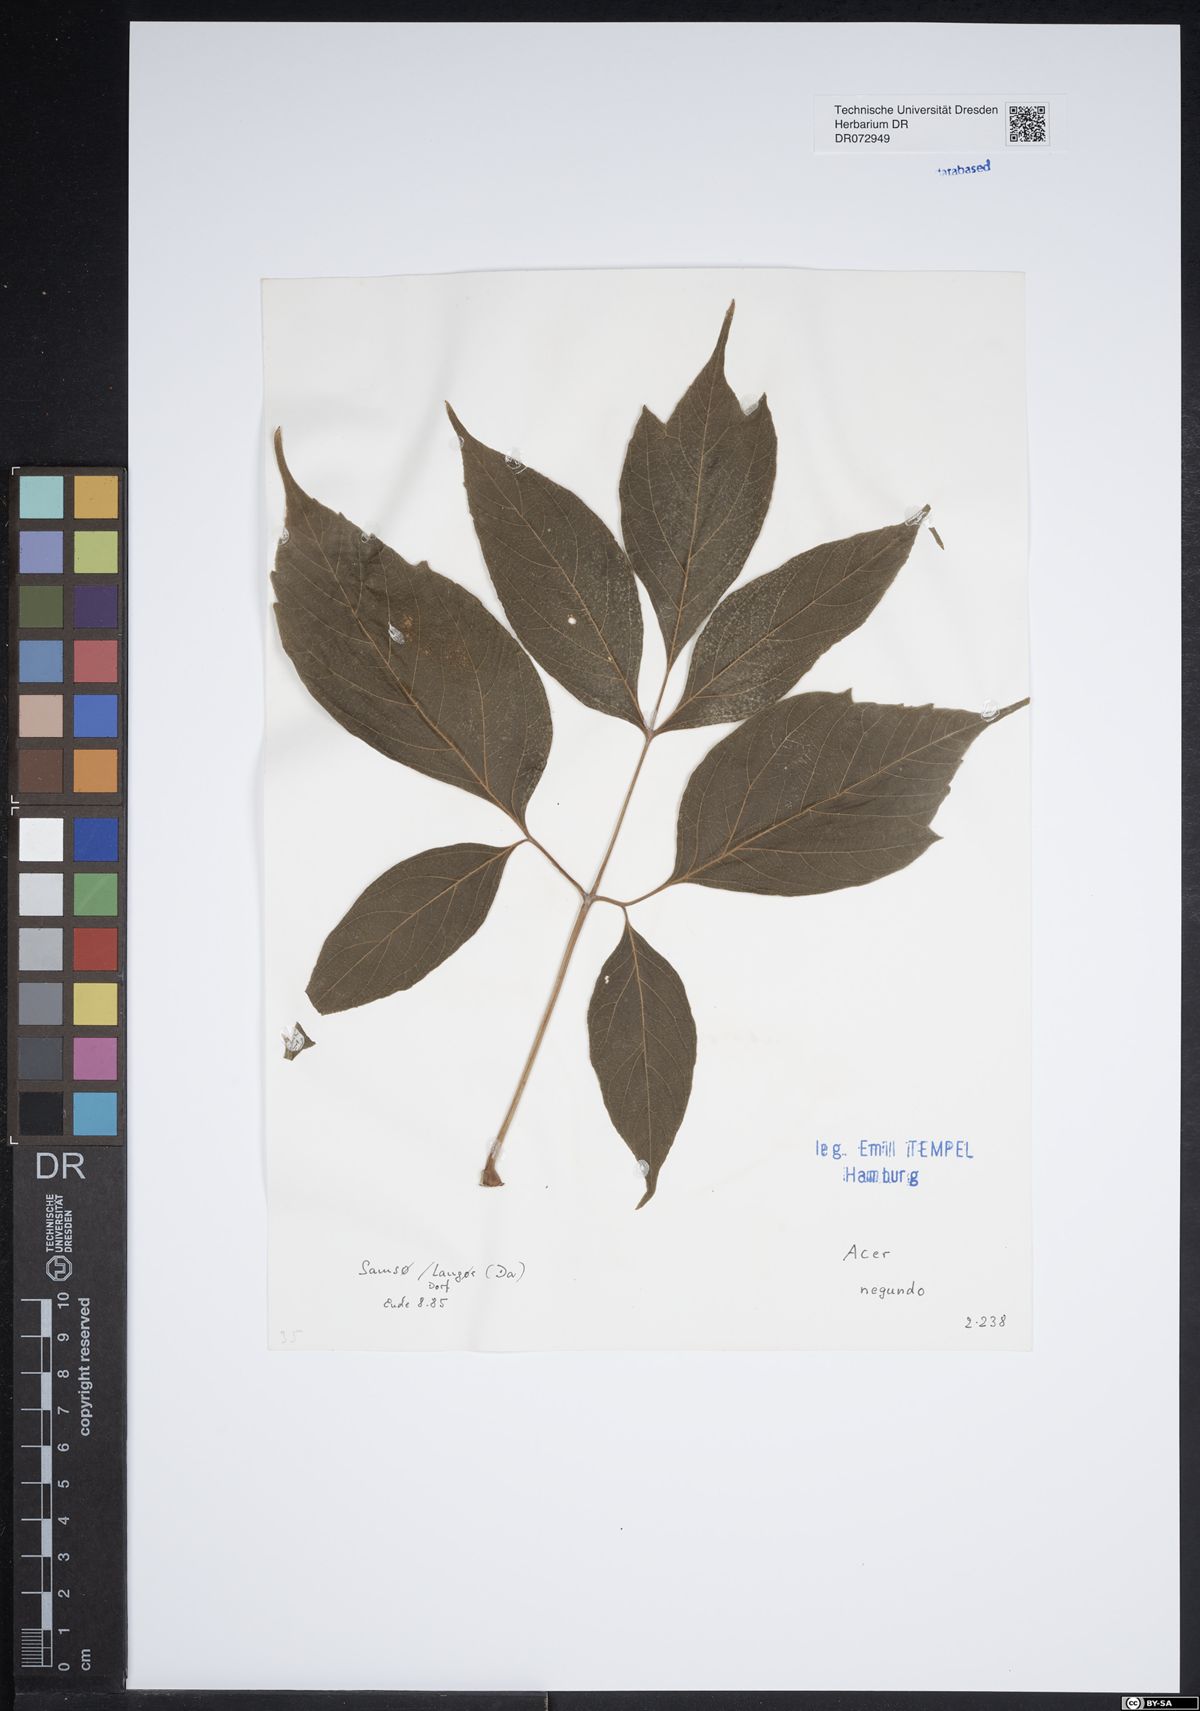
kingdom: Plantae
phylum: Tracheophyta
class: Magnoliopsida
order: Sapindales
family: Sapindaceae
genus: Acer
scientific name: Acer negundo
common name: Ashleaf maple
